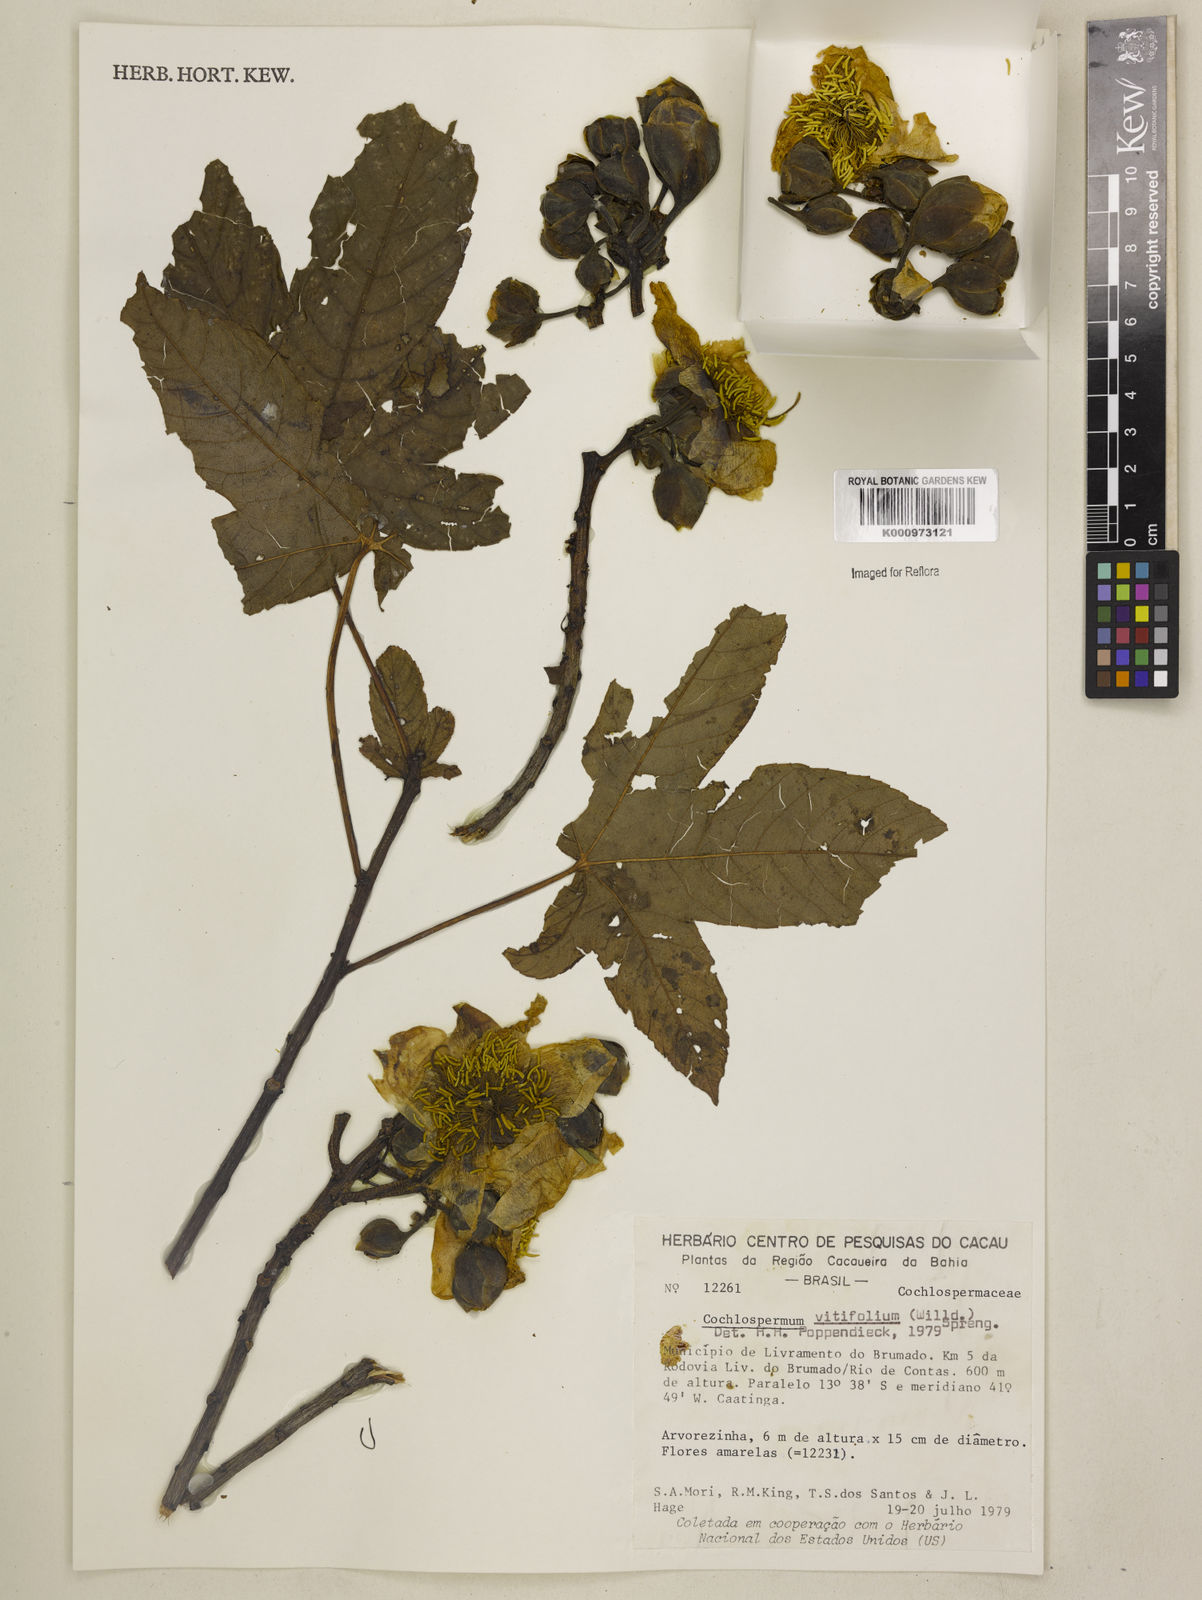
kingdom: Plantae
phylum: Tracheophyta
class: Magnoliopsida
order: Malvales
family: Cochlospermaceae
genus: Cochlospermum
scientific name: Cochlospermum regium
